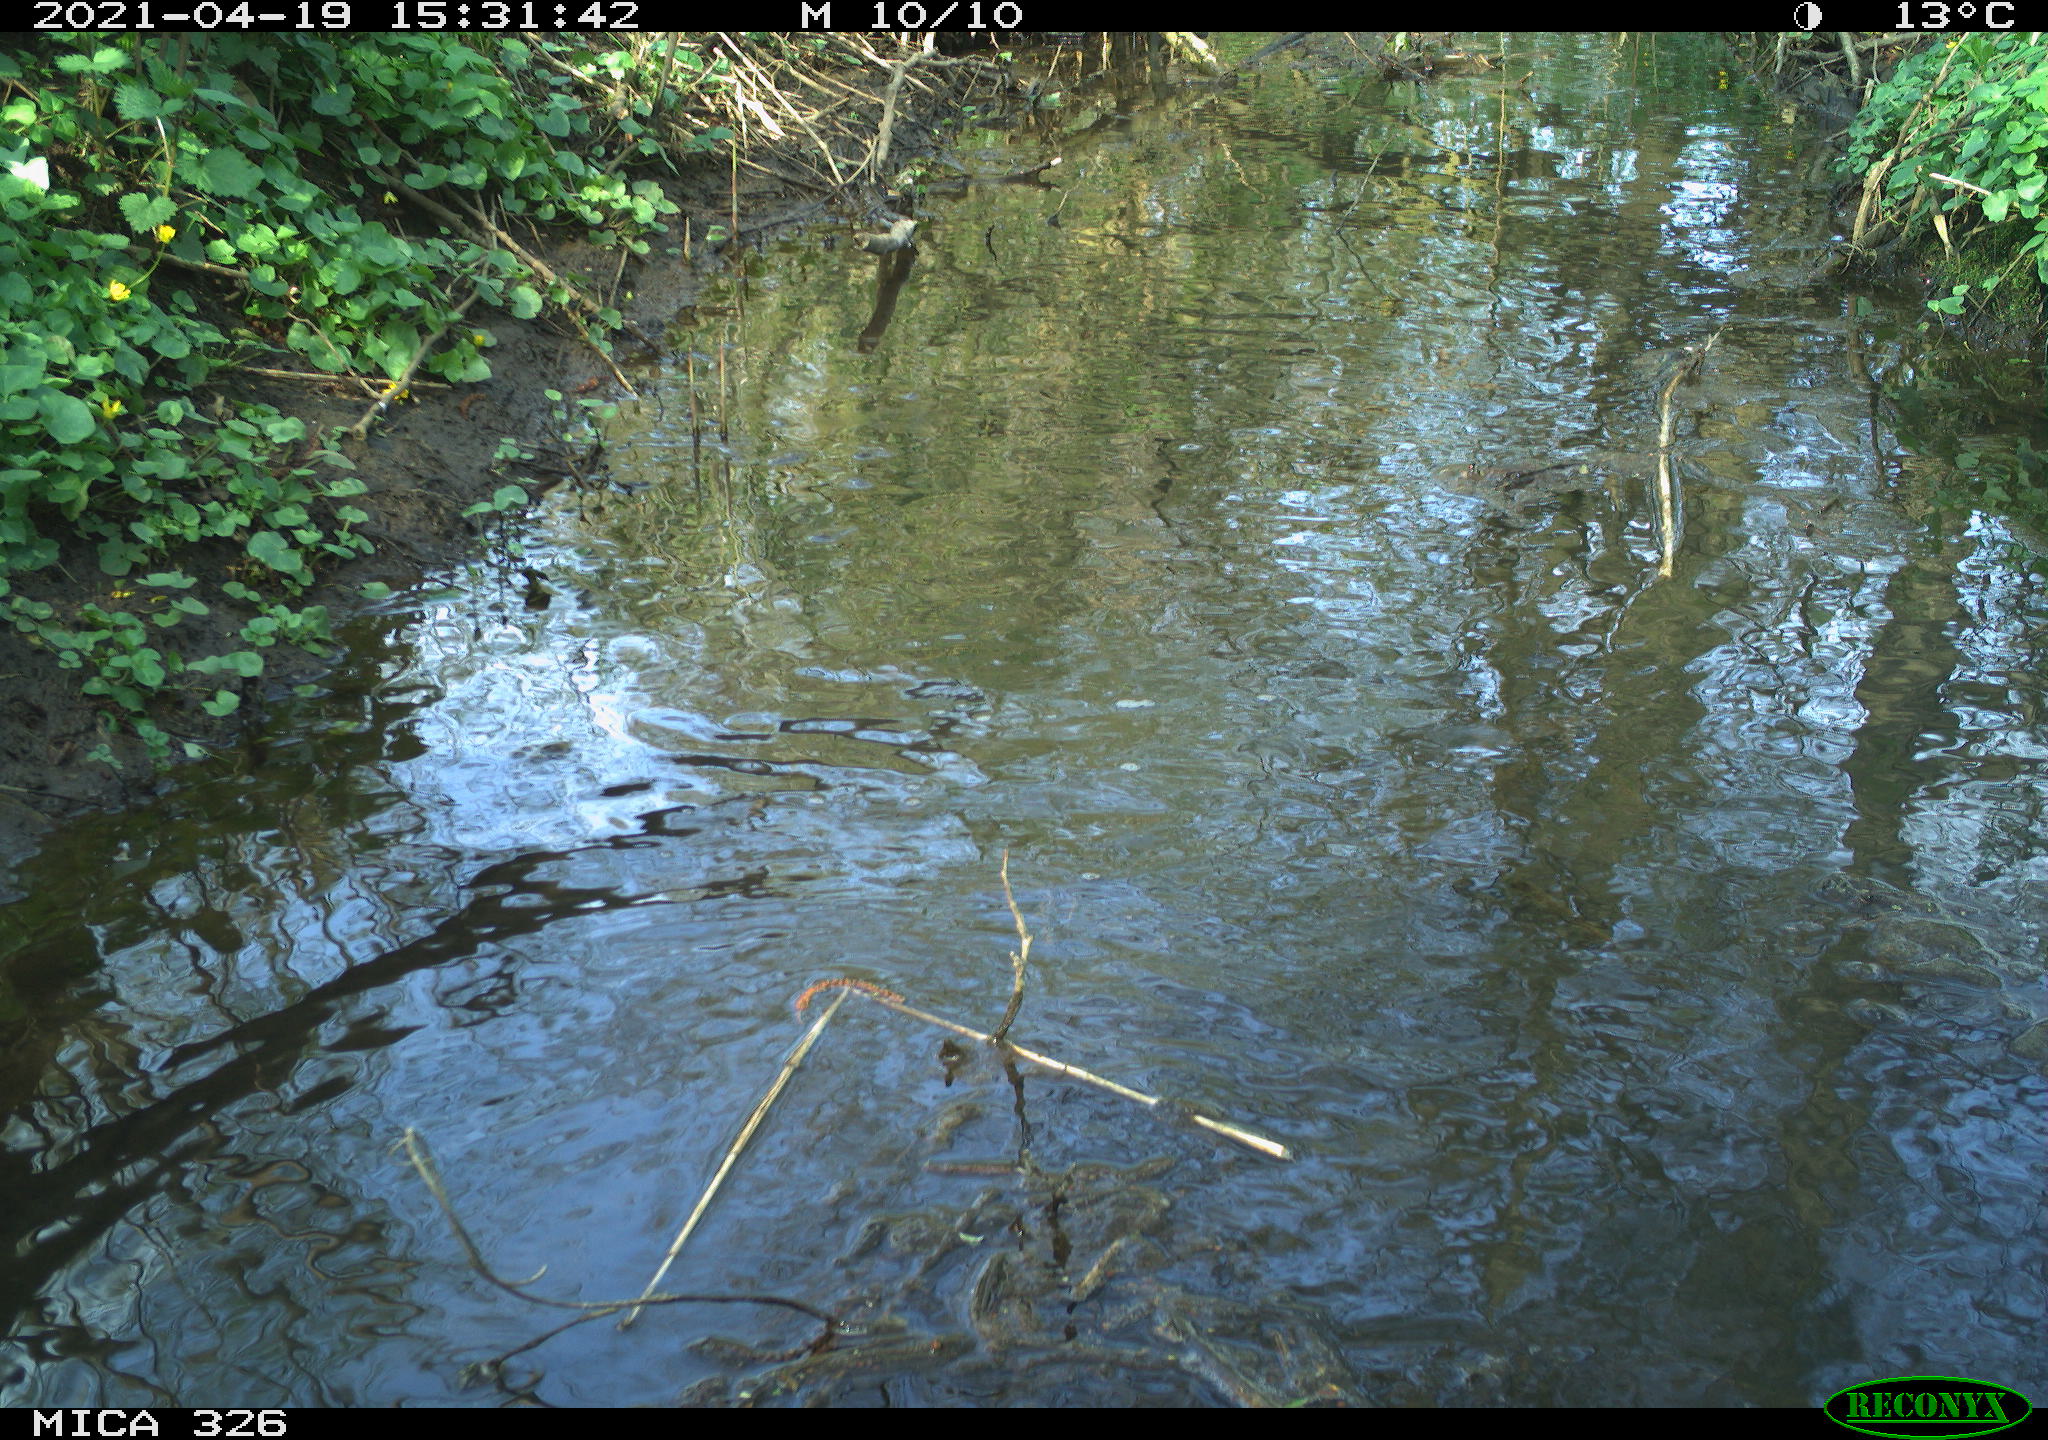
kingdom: Animalia
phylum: Chordata
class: Aves
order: Gruiformes
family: Rallidae
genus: Fulica
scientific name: Fulica atra
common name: Eurasian coot
